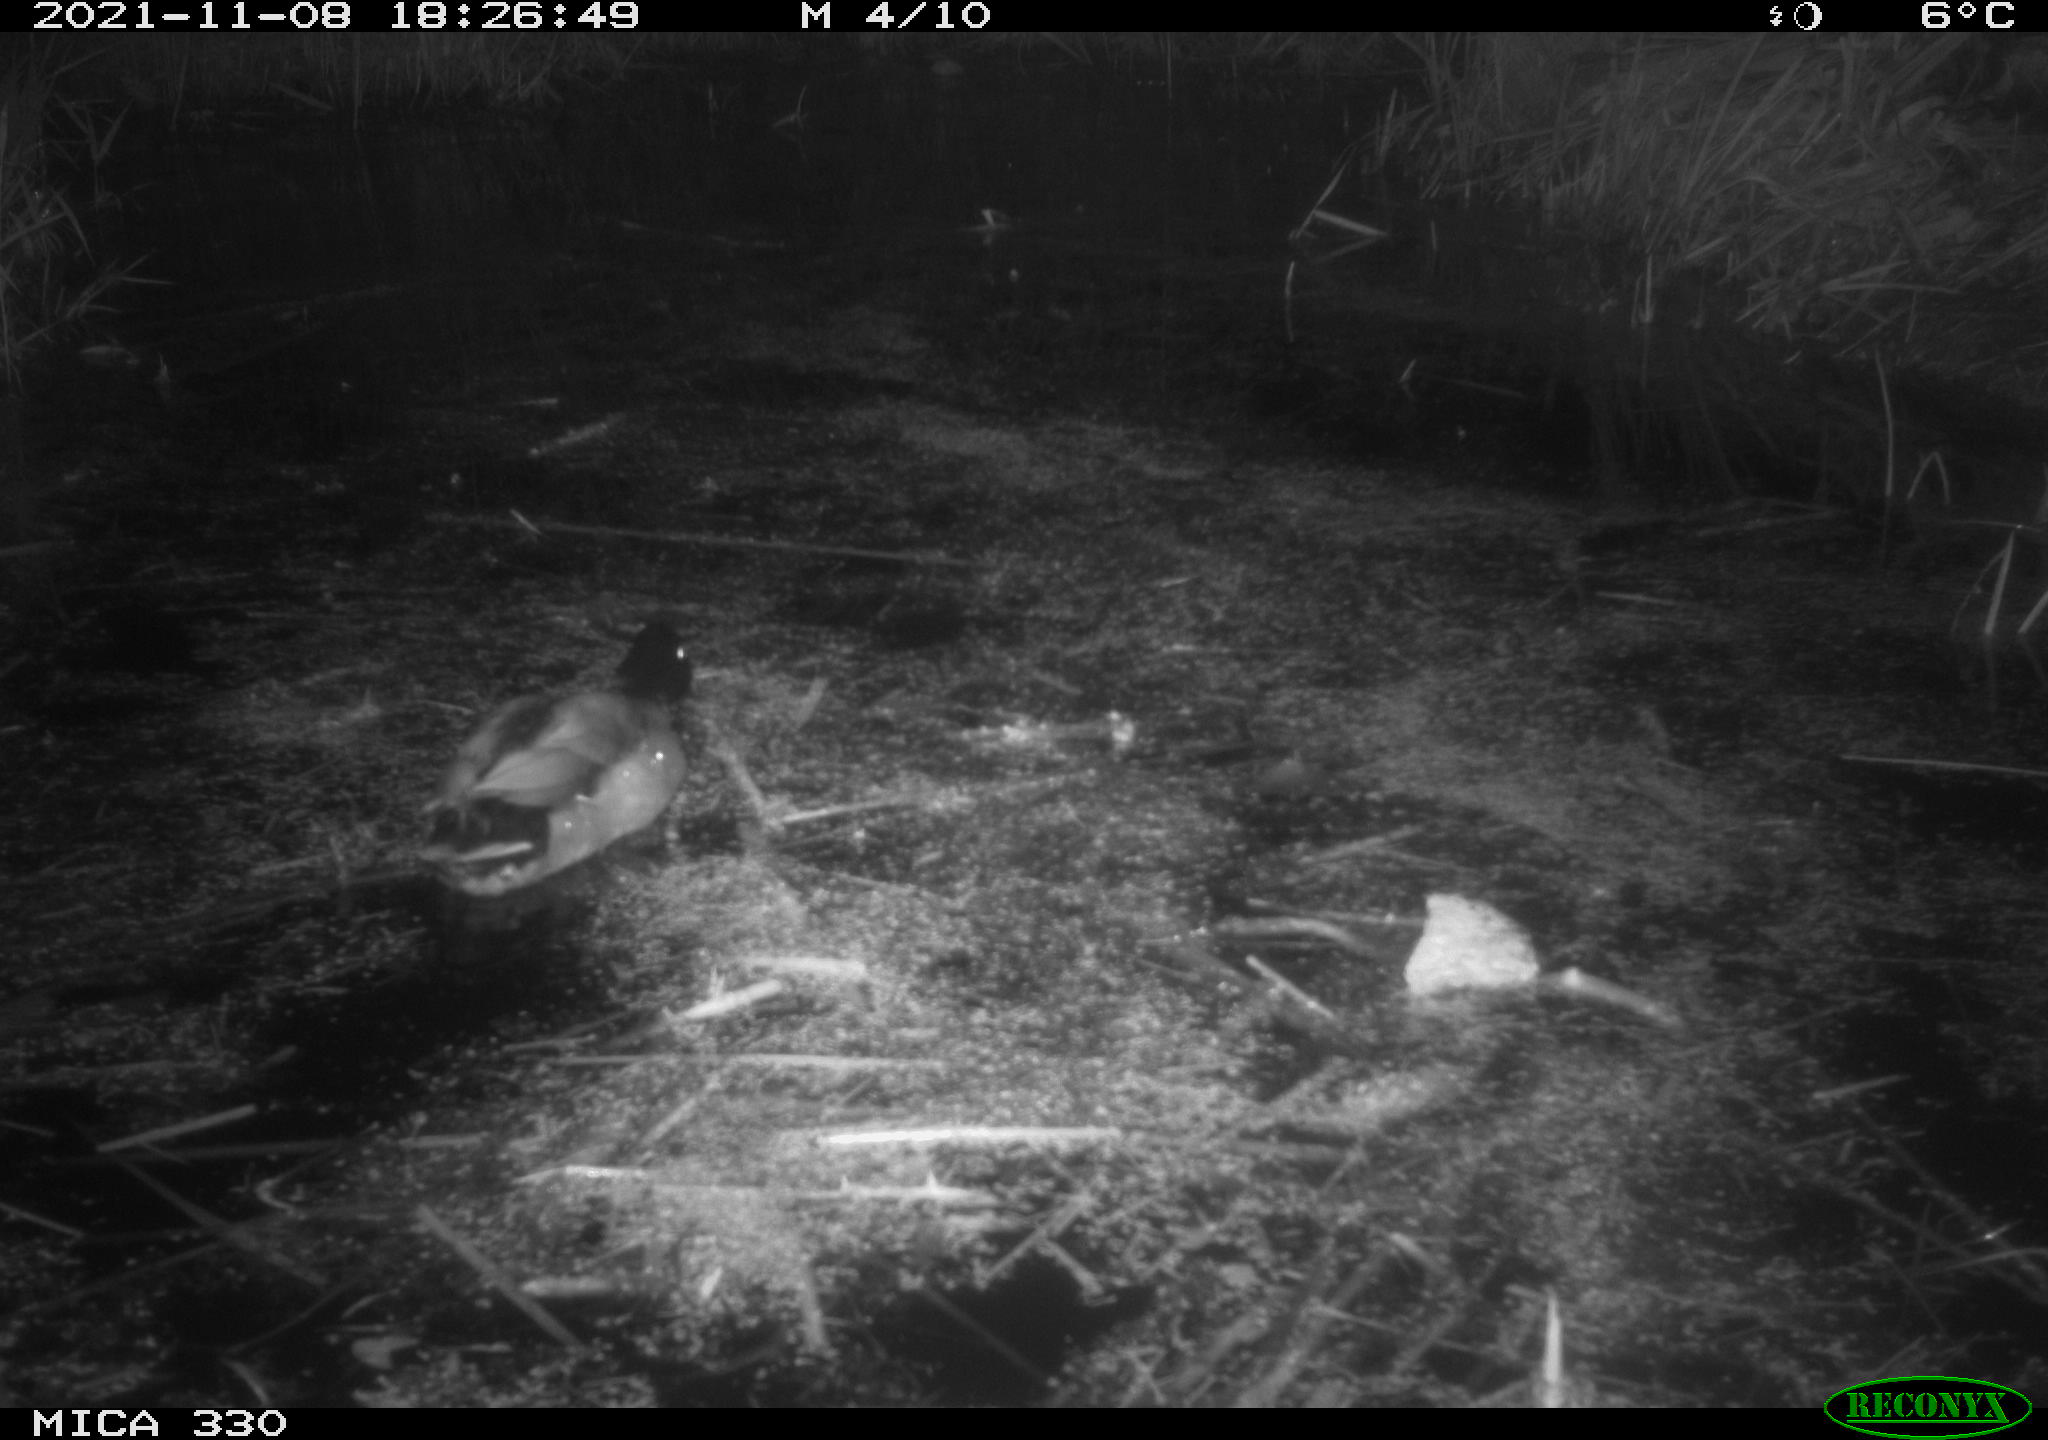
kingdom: Animalia
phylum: Chordata
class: Aves
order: Anseriformes
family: Anatidae
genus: Anas
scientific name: Anas platyrhynchos
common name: Mallard
